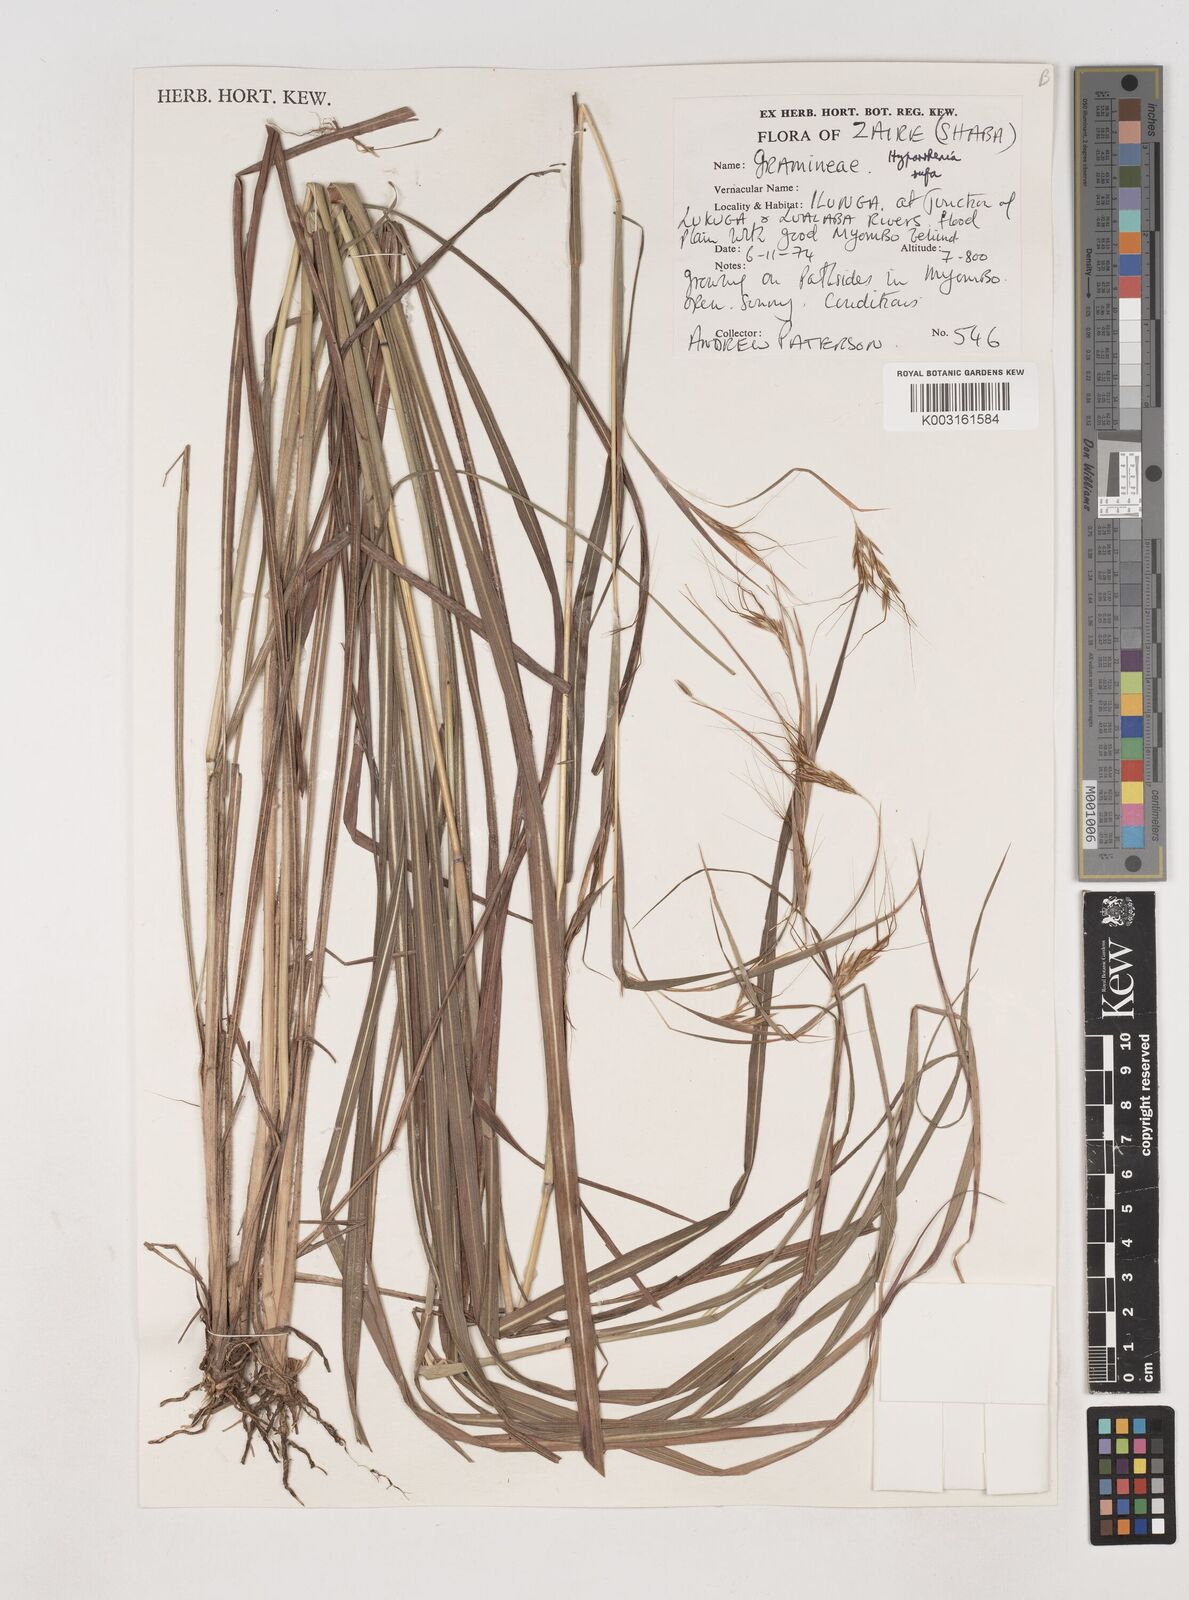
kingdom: Plantae
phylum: Tracheophyta
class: Liliopsida
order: Poales
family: Poaceae
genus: Hyparrhenia
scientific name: Hyparrhenia rufa
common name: Jaraguagrass
